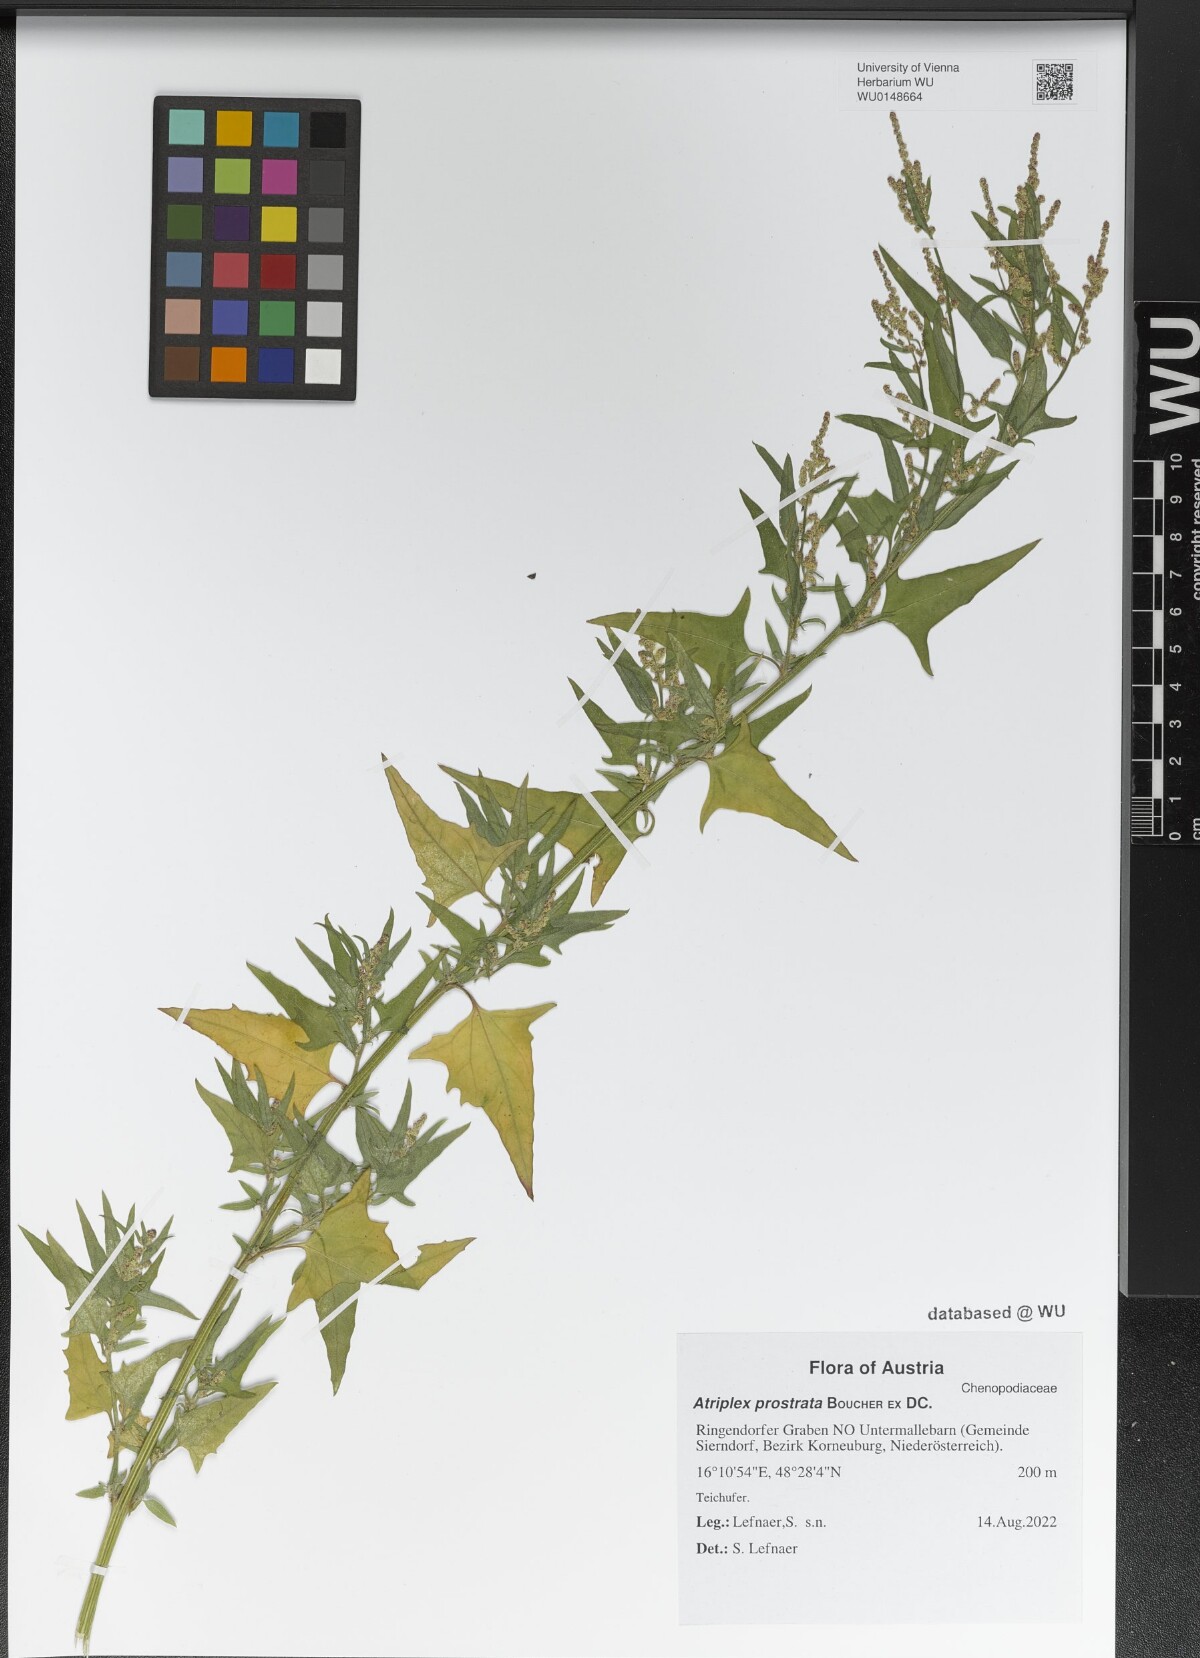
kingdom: Plantae
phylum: Tracheophyta
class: Magnoliopsida
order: Caryophyllales
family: Amaranthaceae
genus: Atriplex
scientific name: Atriplex prostrata
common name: Spear-leaved orache
